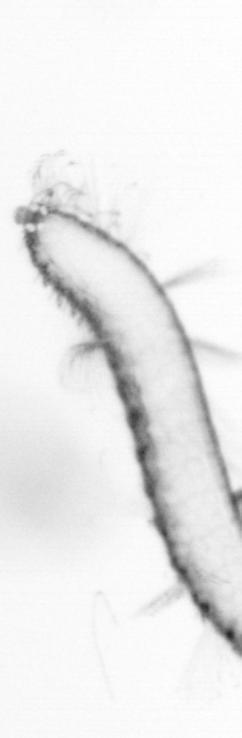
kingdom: Animalia
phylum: Annelida
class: Polychaeta
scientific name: Polychaeta
